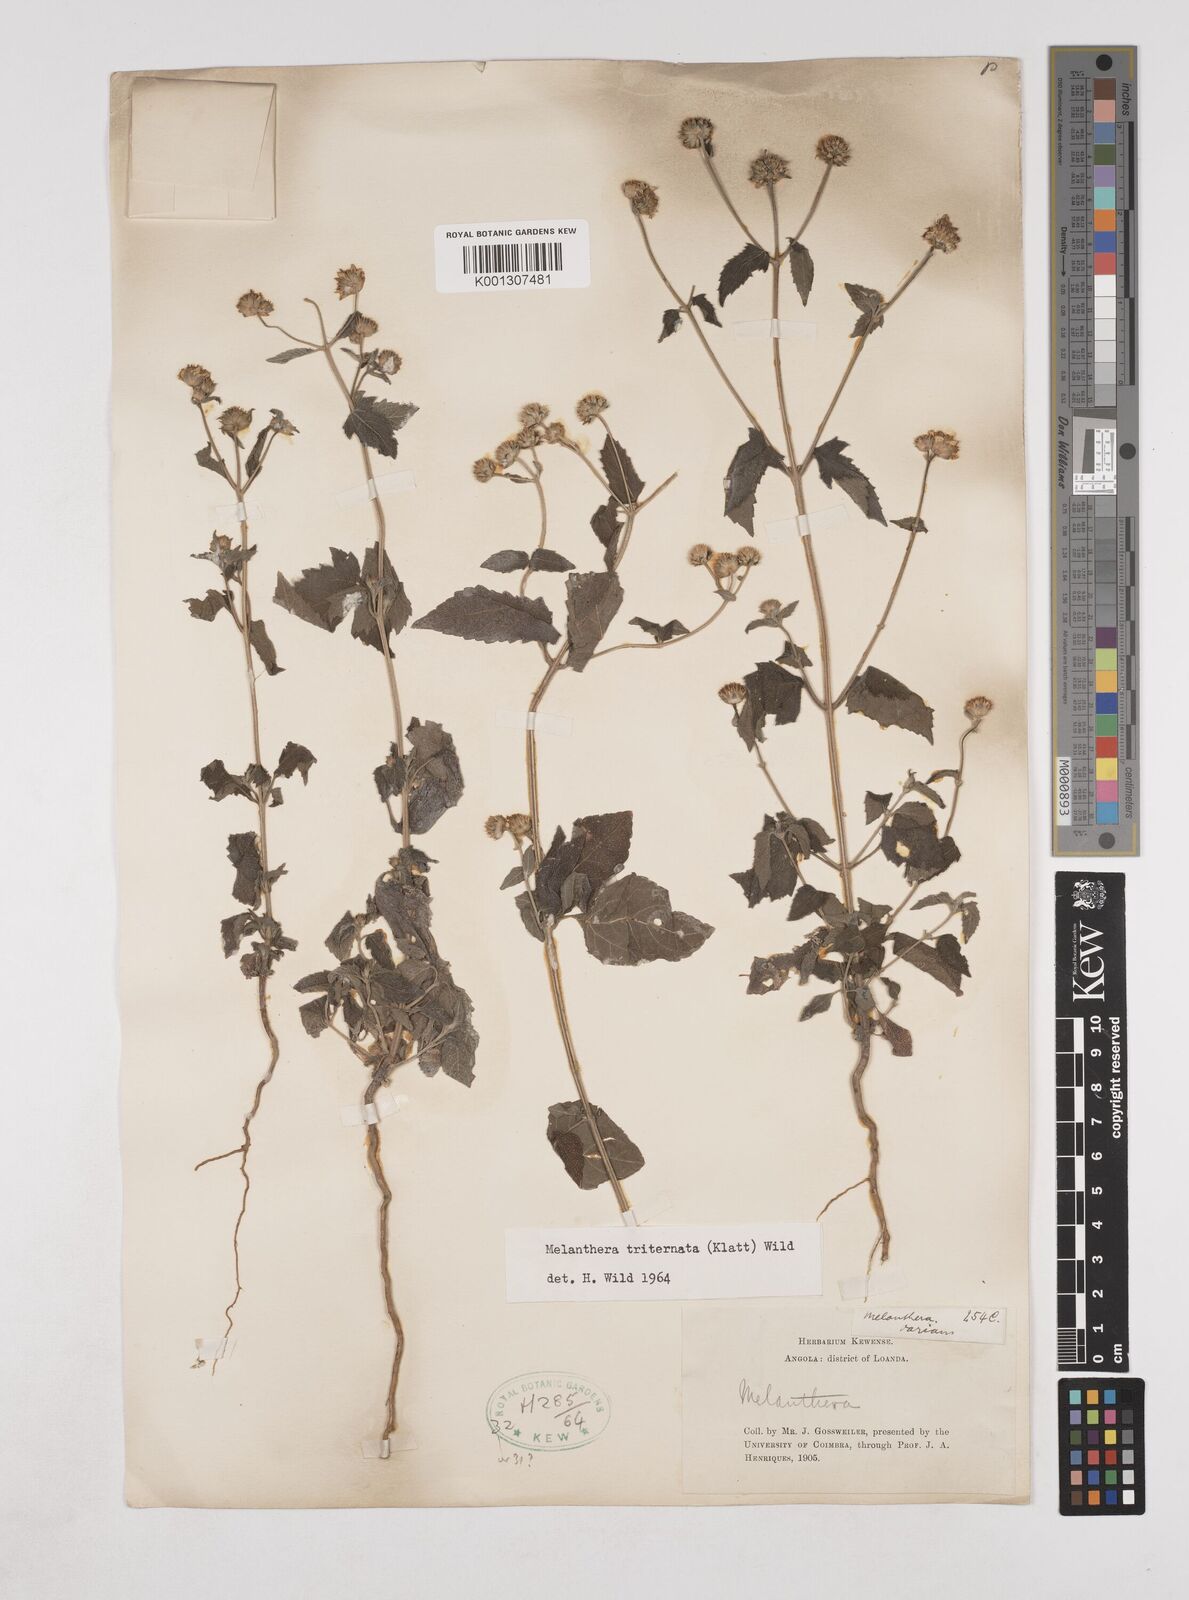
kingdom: Plantae
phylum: Tracheophyta
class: Magnoliopsida
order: Asterales
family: Asteraceae
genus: Lipotriche
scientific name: Lipotriche marlothiana
